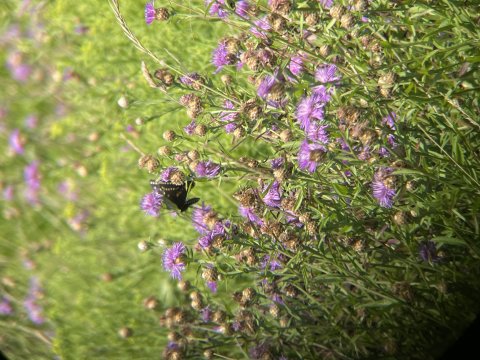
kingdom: Animalia
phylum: Arthropoda
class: Insecta
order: Lepidoptera
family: Papilionidae
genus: Papilio
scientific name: Papilio polyxenes
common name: Black Swallowtail
